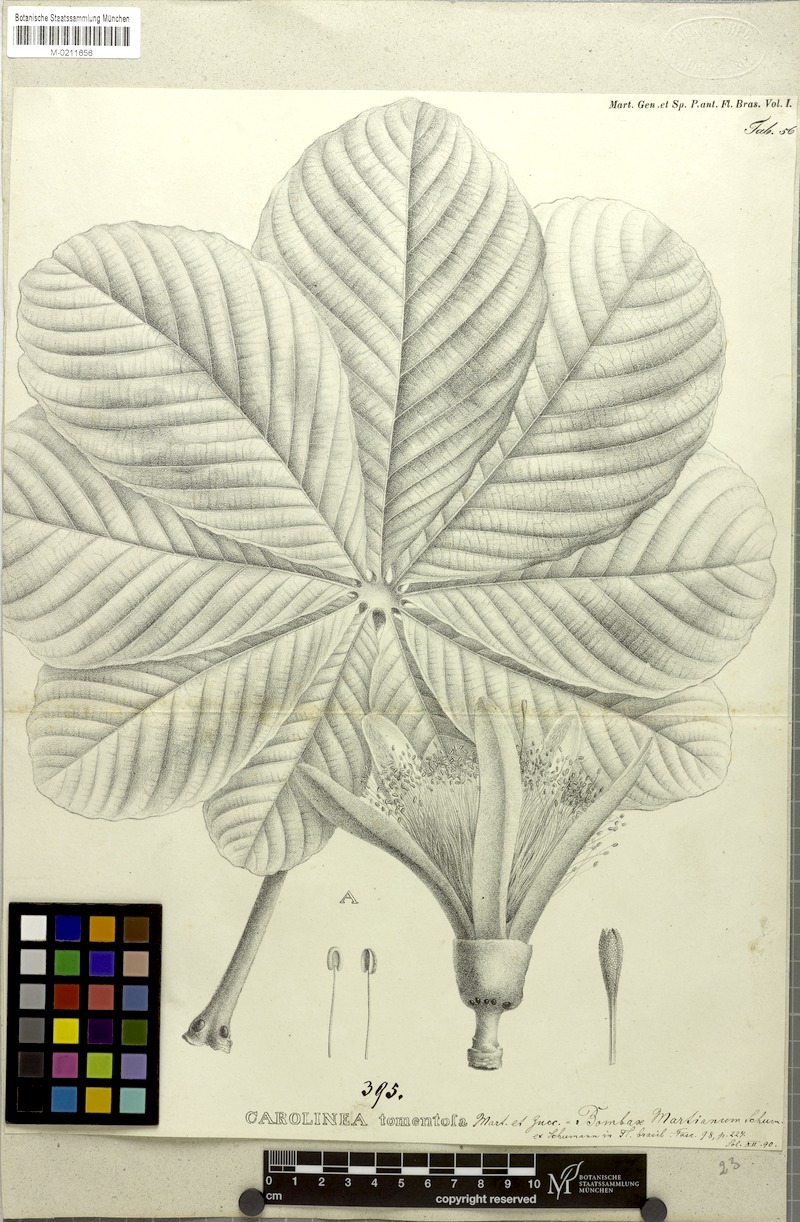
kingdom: Plantae
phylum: Tracheophyta
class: Magnoliopsida
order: Malvales
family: Malvaceae
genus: Pseudobombax
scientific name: Pseudobombax tomentosum
